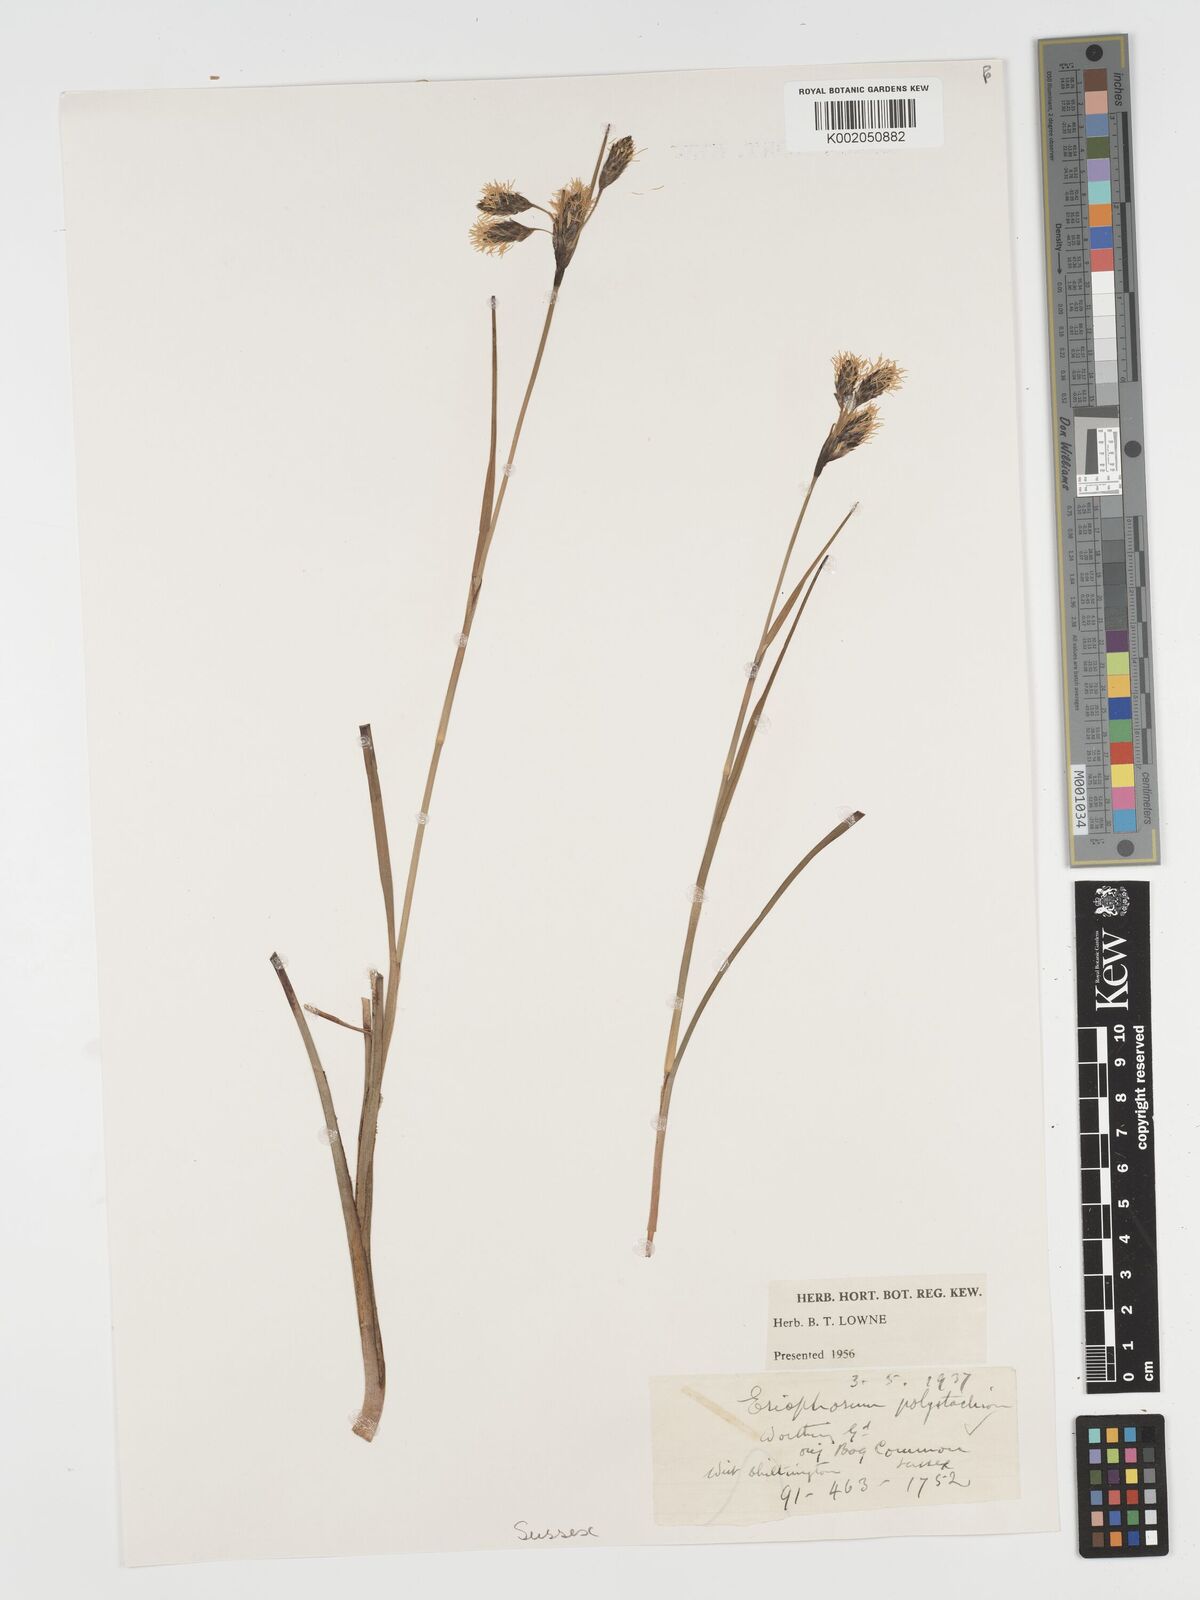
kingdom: Plantae
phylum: Tracheophyta
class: Liliopsida
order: Poales
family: Cyperaceae
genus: Eriophorum
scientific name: Eriophorum angustifolium
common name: Common cottongrass
